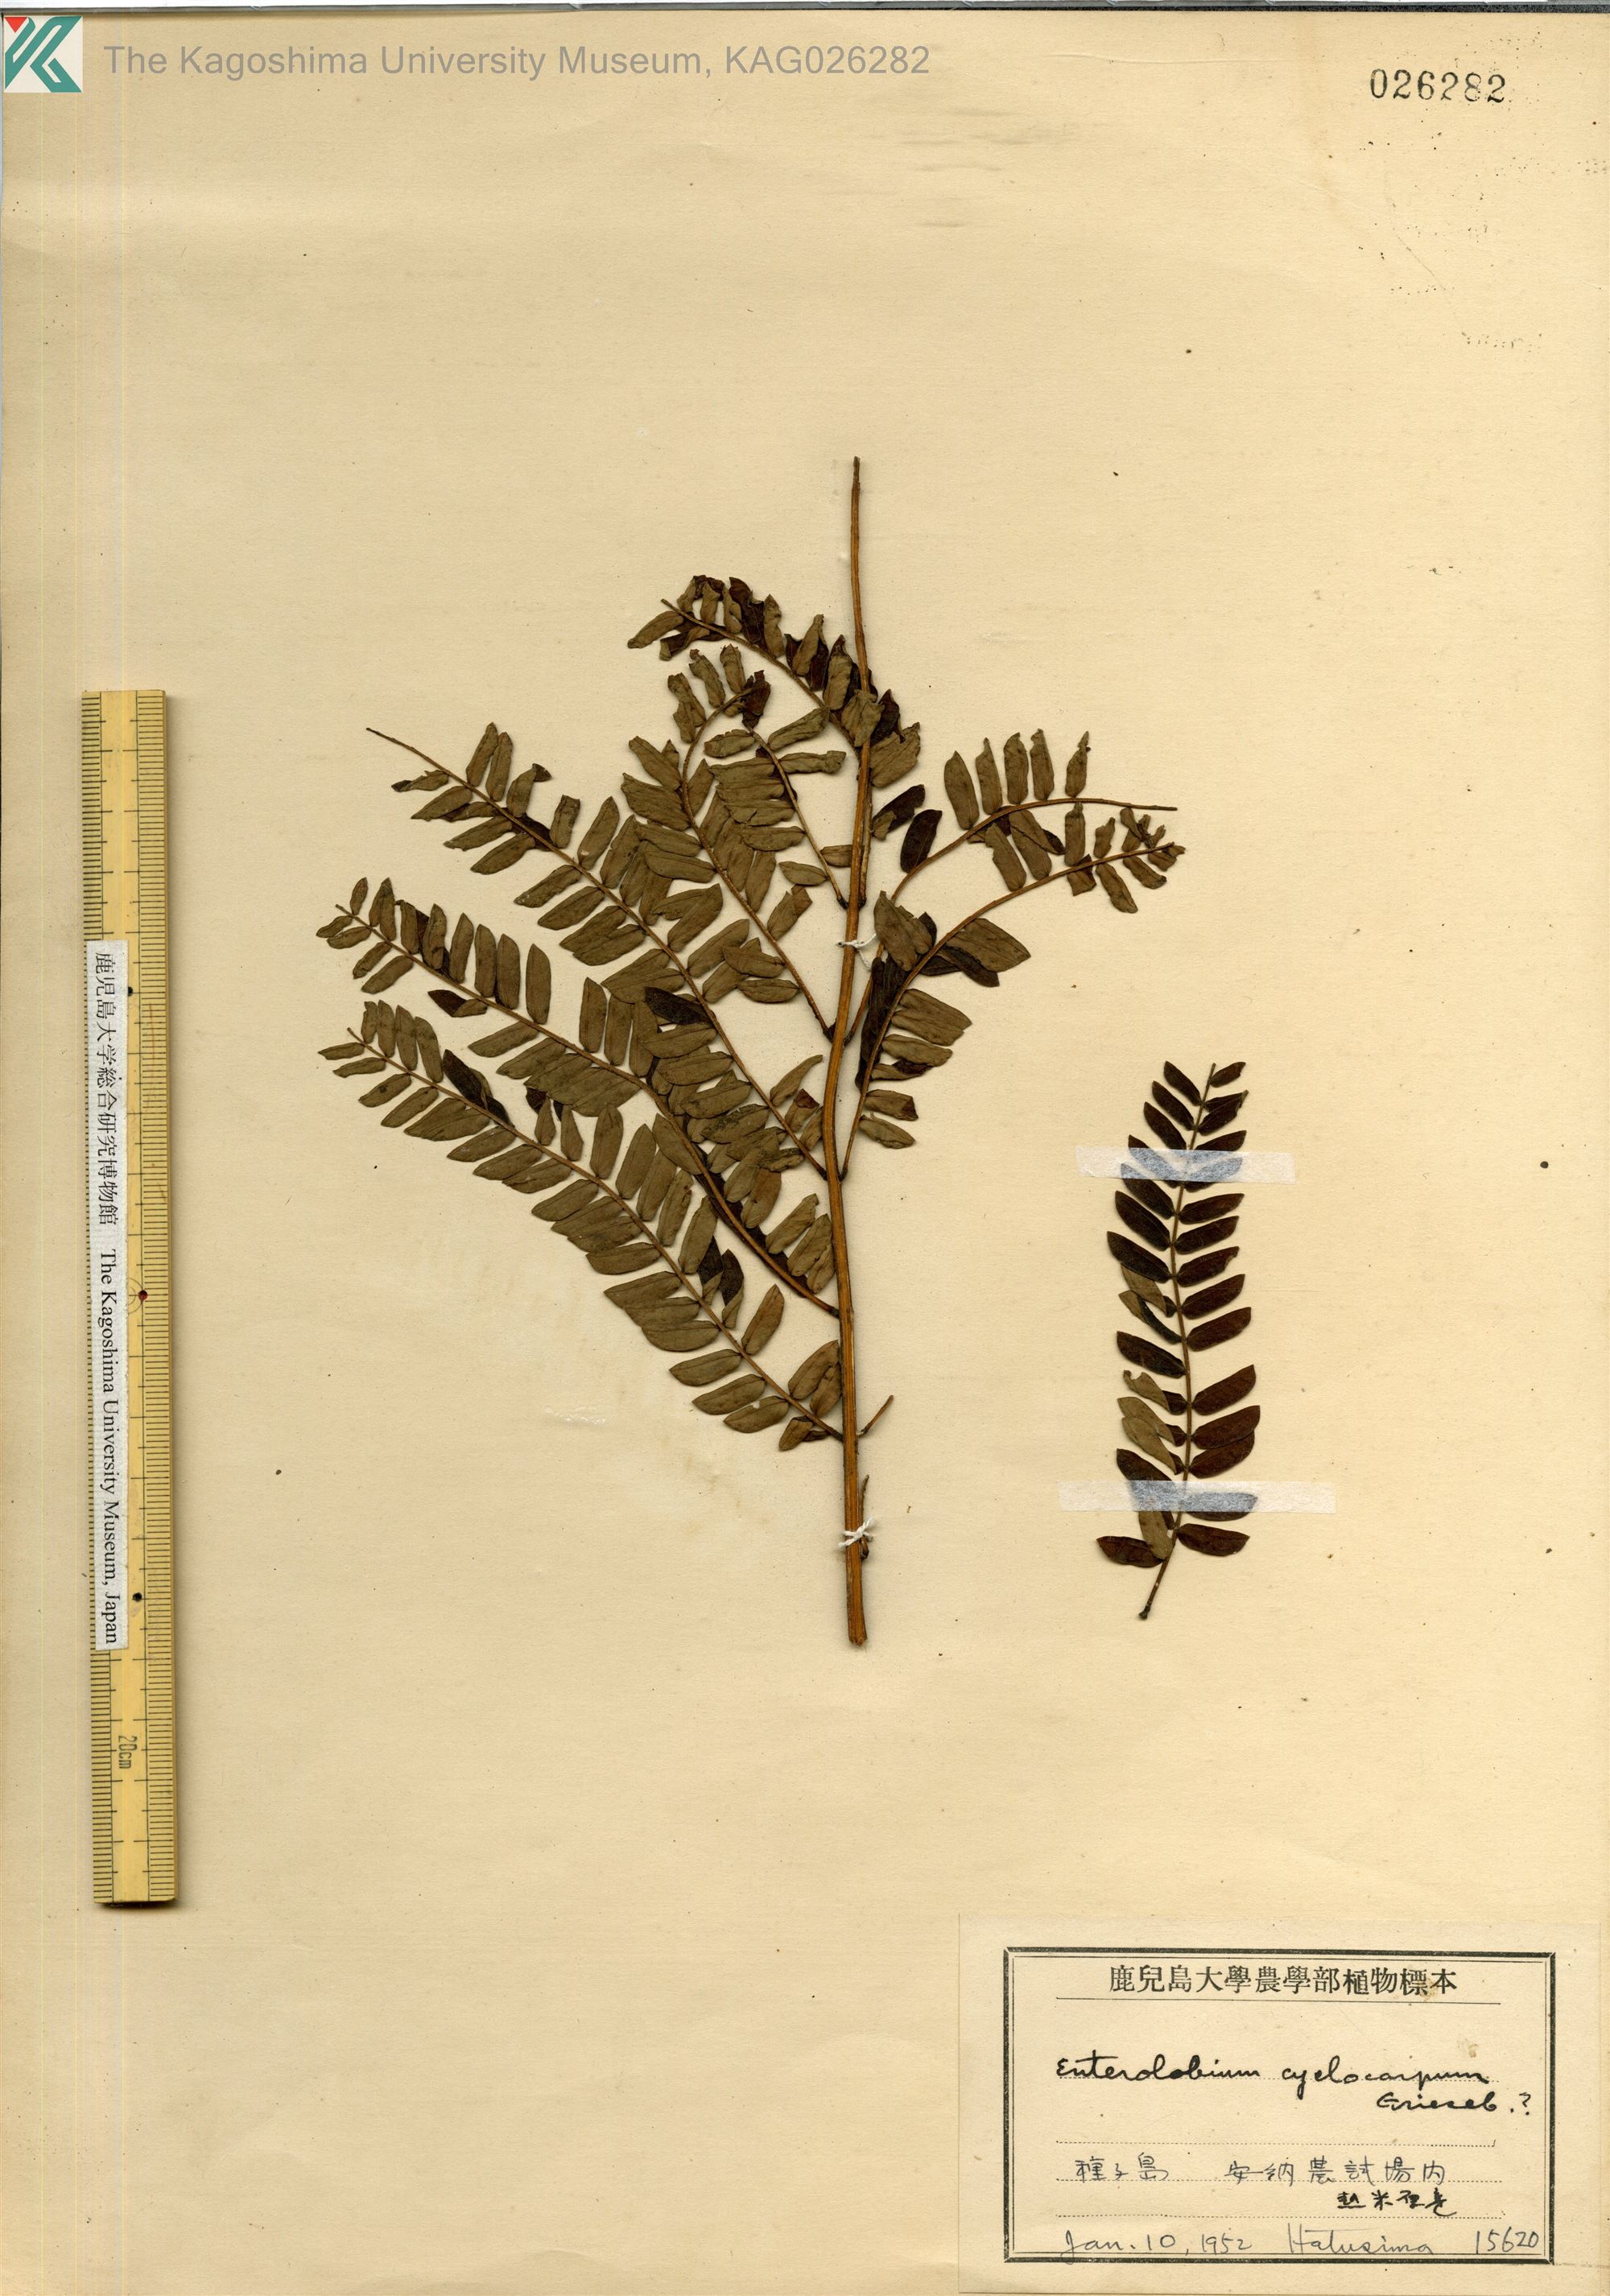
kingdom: Plantae
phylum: Tracheophyta
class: Magnoliopsida
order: Fabales
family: Fabaceae
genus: Enterolobium
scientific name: Enterolobium cyclocarpum
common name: Ear tree
